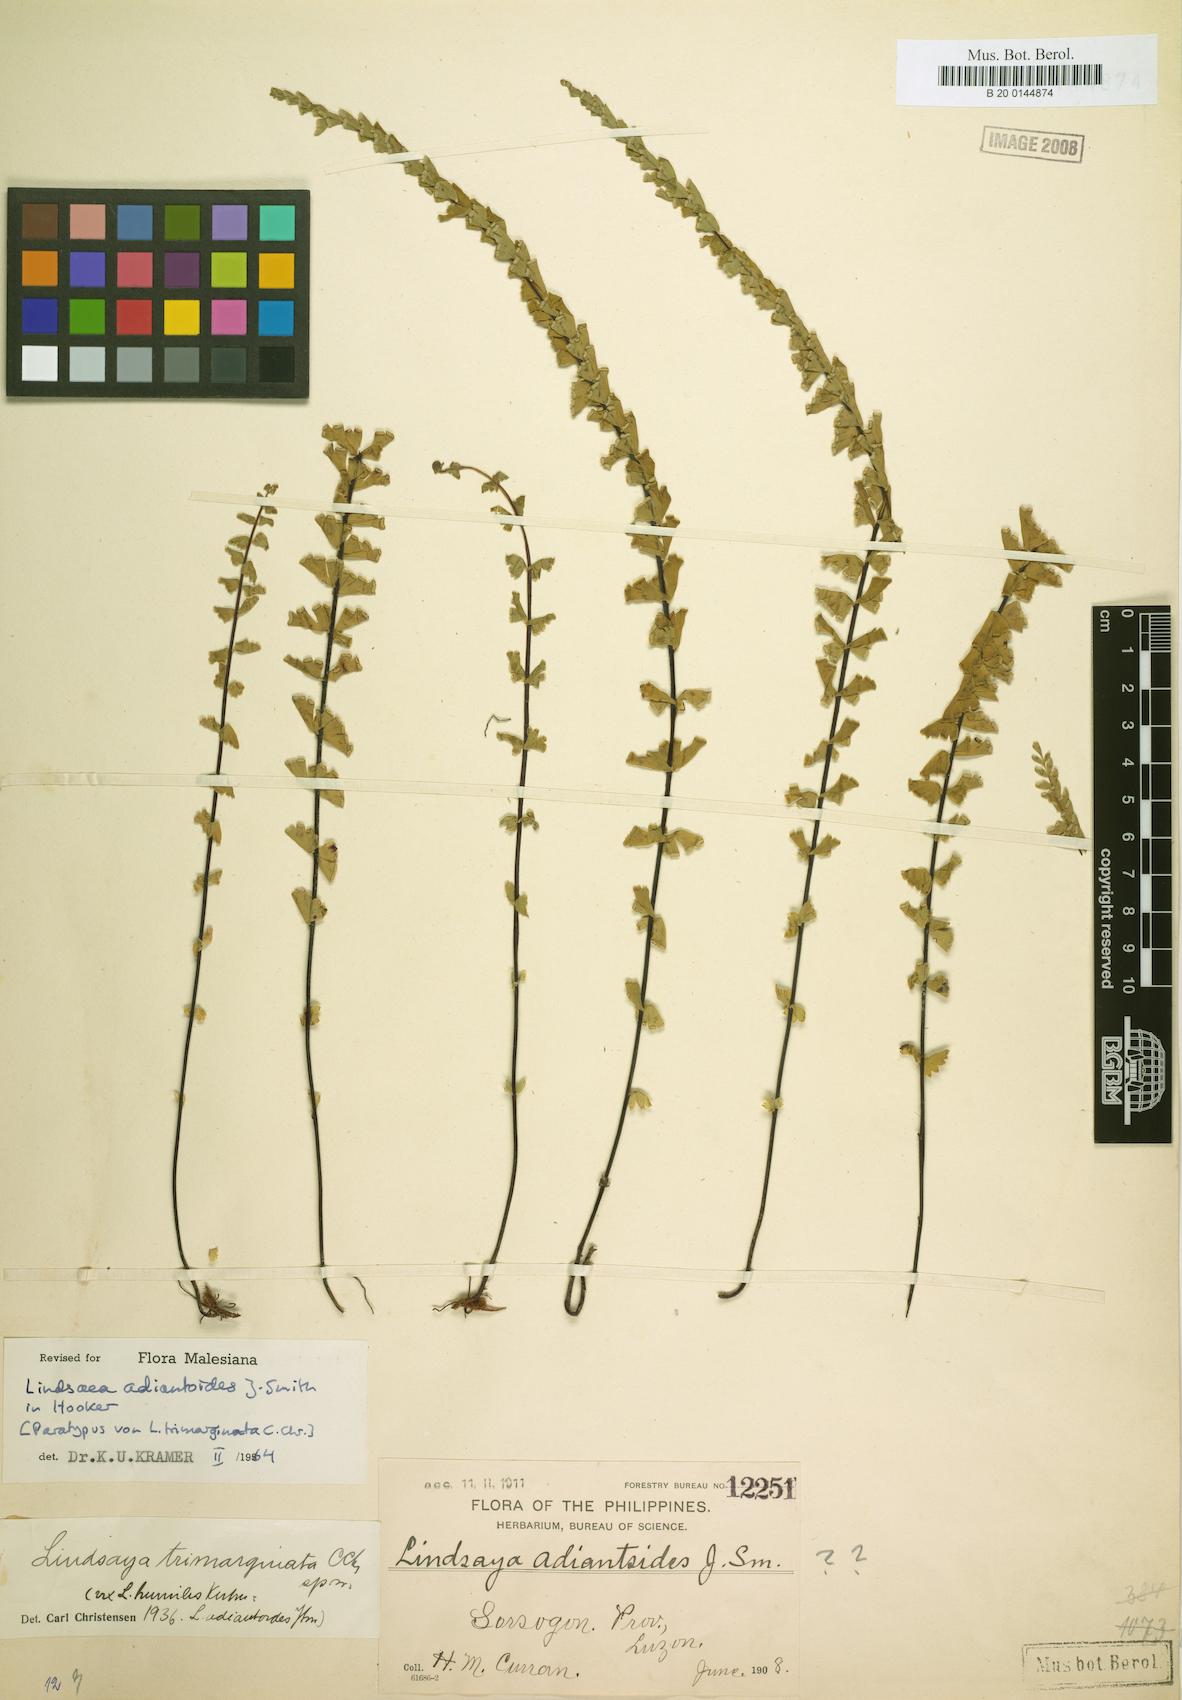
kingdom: Plantae
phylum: Tracheophyta
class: Polypodiopsida
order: Polypodiales
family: Lindsaeaceae
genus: Lindsaea
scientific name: Lindsaea adiantoides
